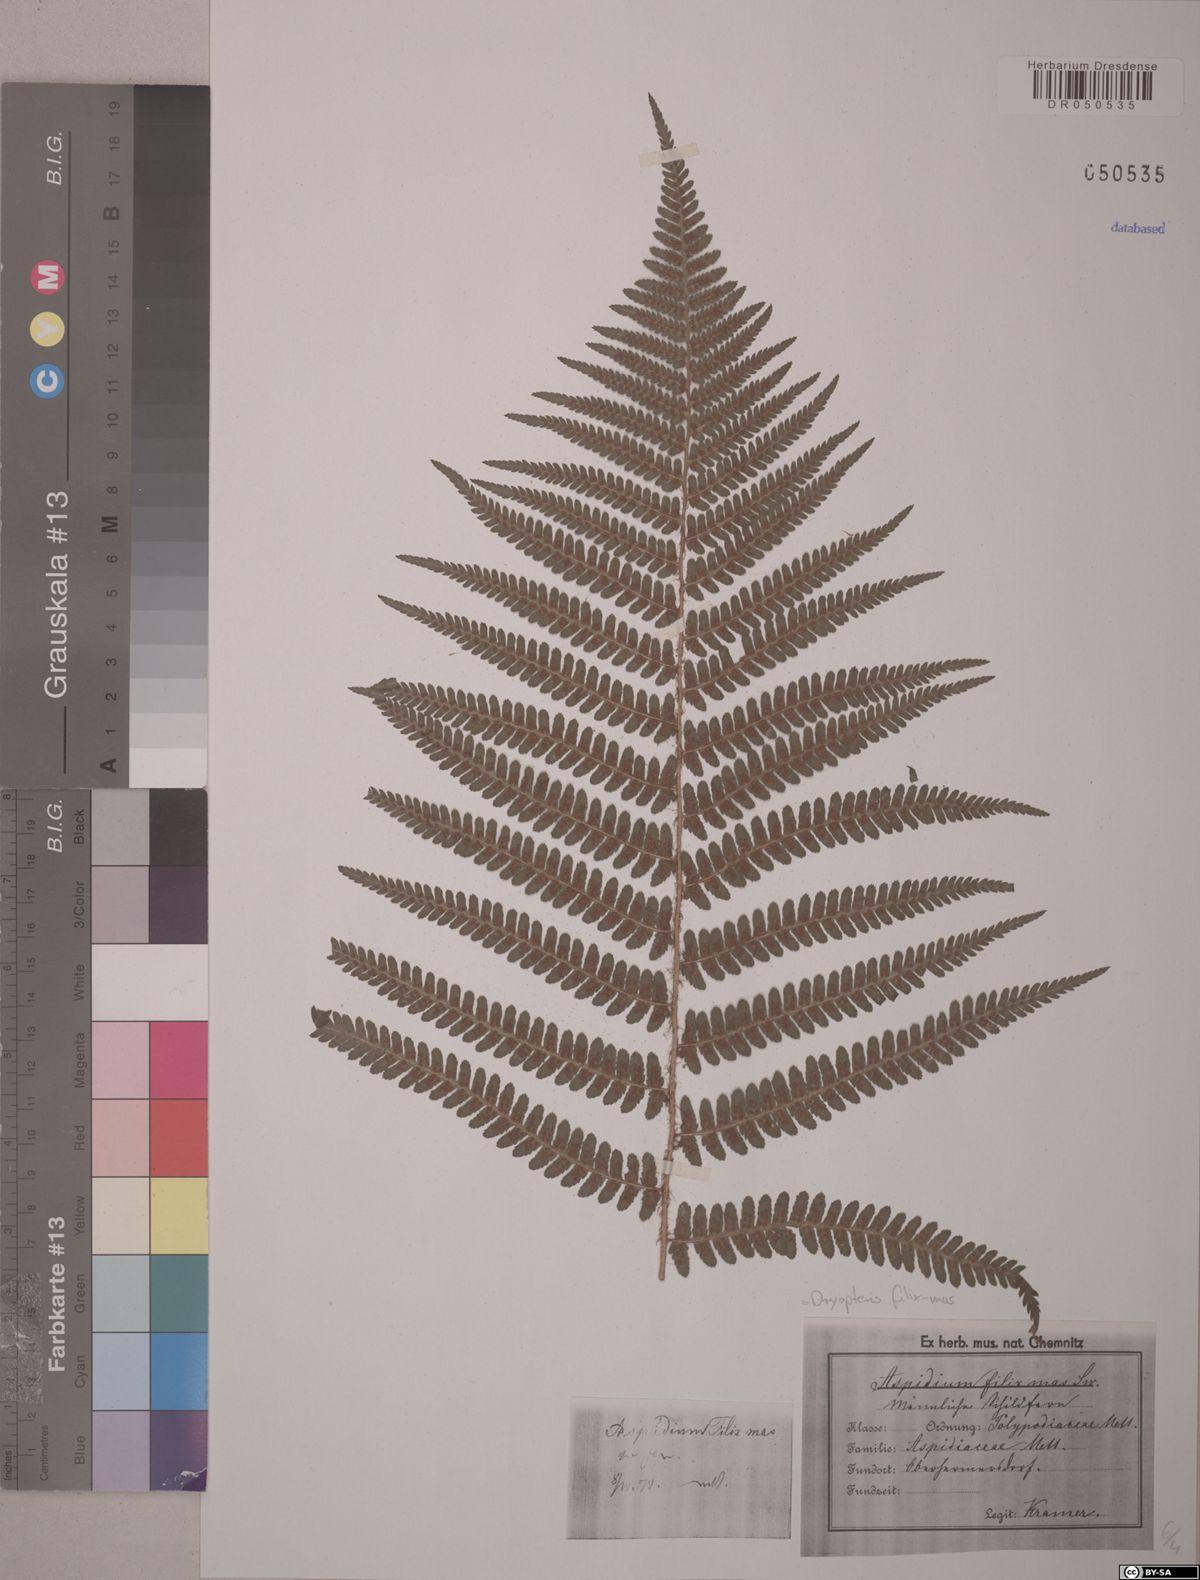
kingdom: Plantae
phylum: Tracheophyta
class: Polypodiopsida
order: Polypodiales
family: Dryopteridaceae
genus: Dryopteris
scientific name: Dryopteris filix-mas
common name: Male fern
